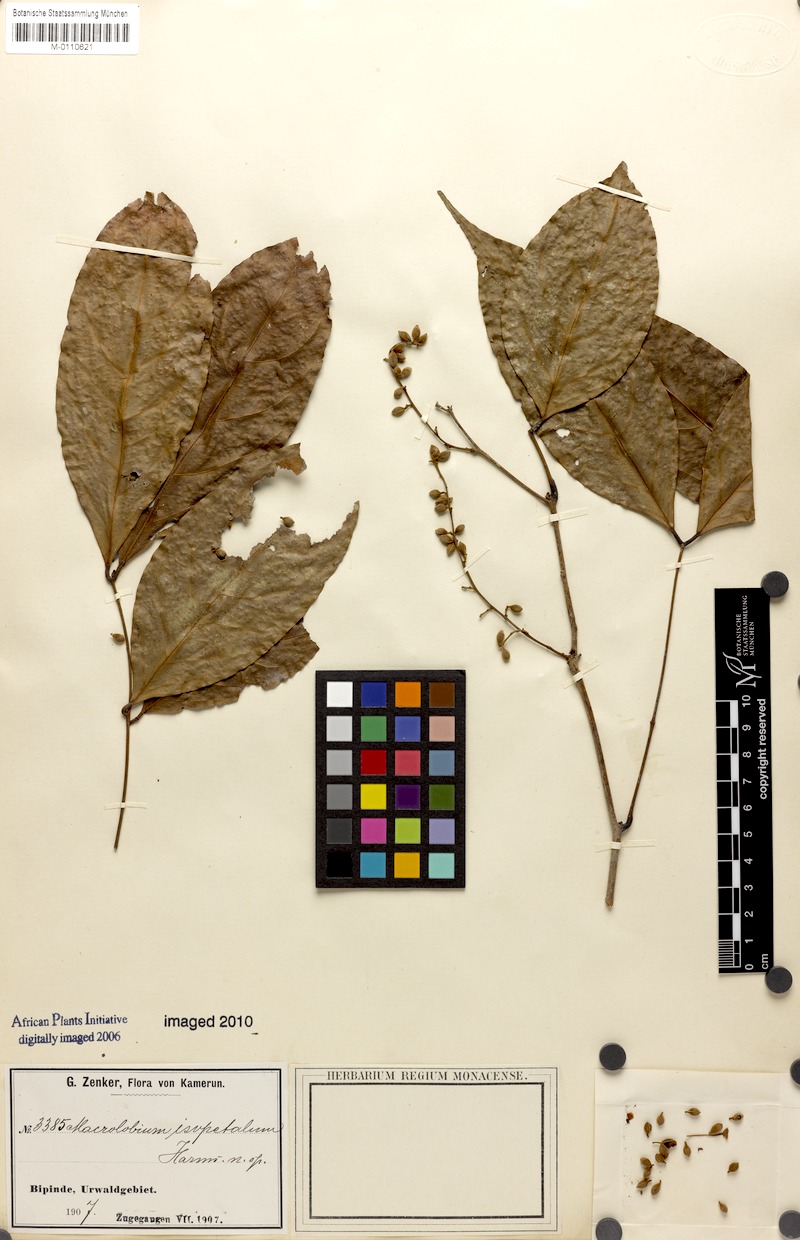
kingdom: Plantae
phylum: Tracheophyta
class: Magnoliopsida
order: Fabales
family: Fabaceae
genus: Englerodendron
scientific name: Englerodendron isopetalum
